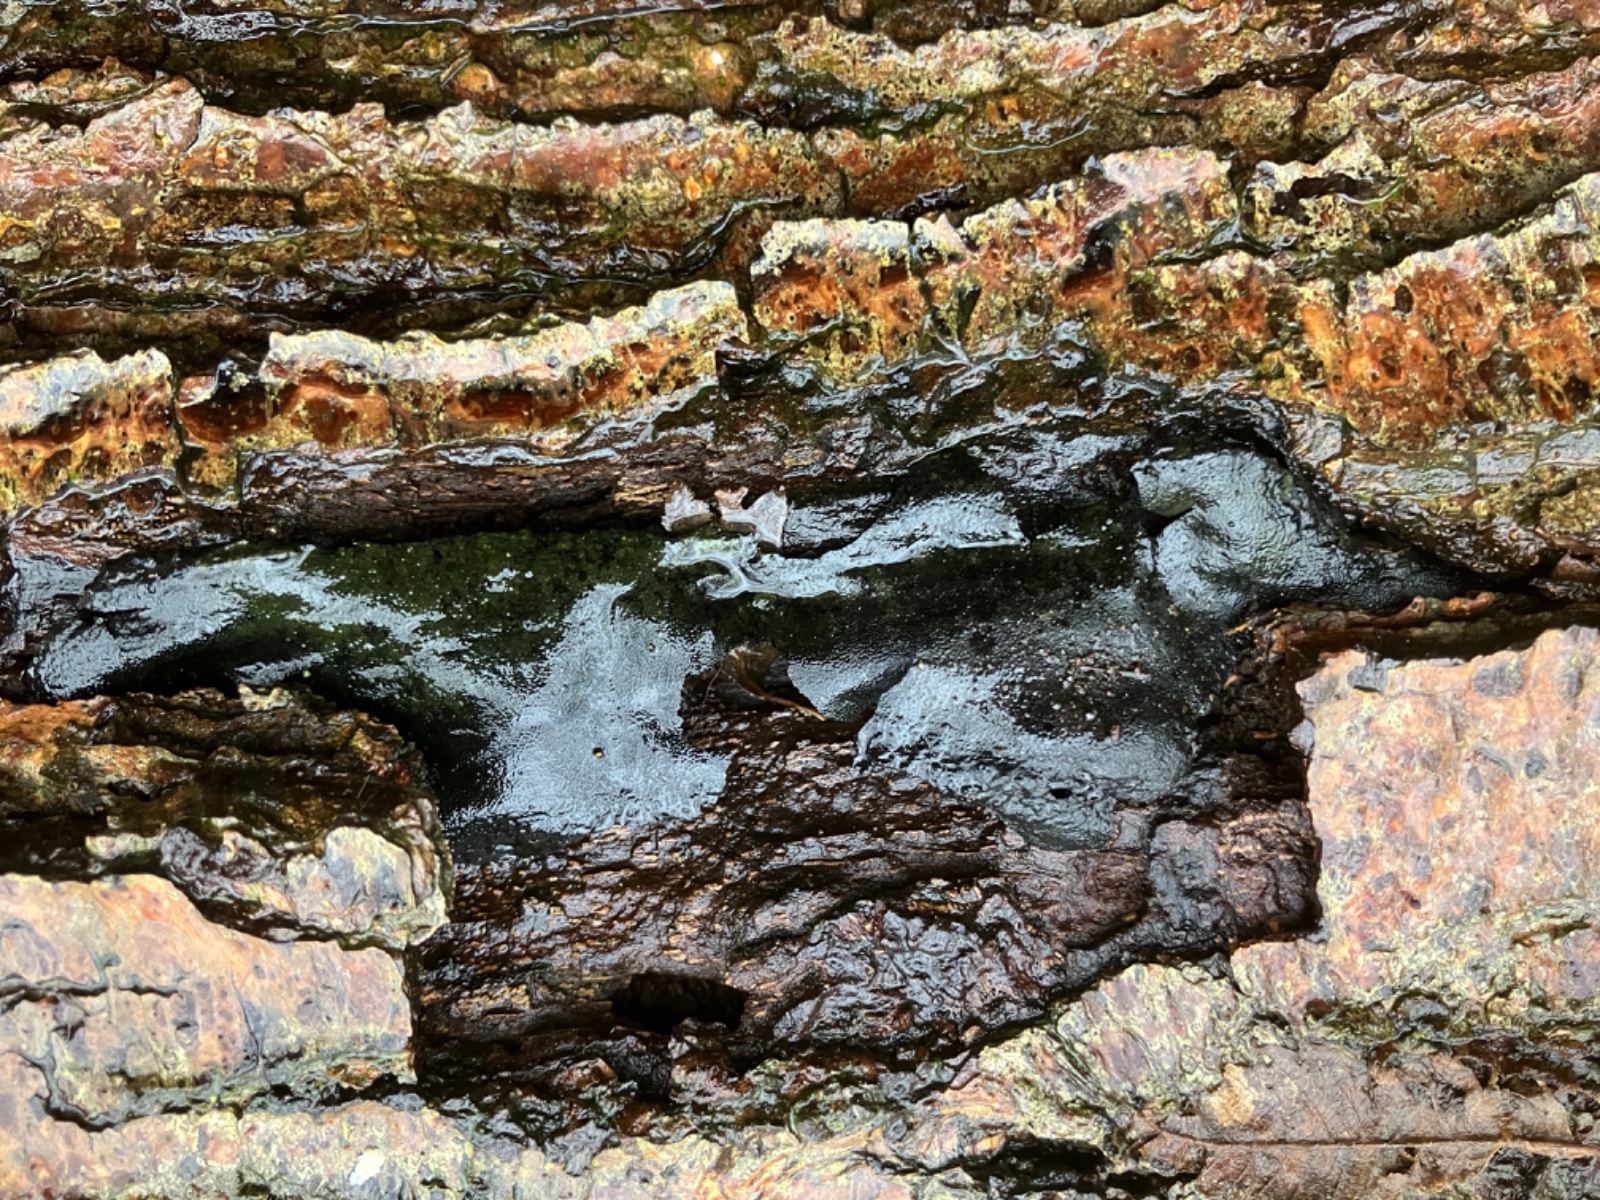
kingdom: Fungi
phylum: Ascomycota
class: Sordariomycetes
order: Boliniales
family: Boliniaceae
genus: Camarops
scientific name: Camarops polysperma
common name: elle-kulsnegl
